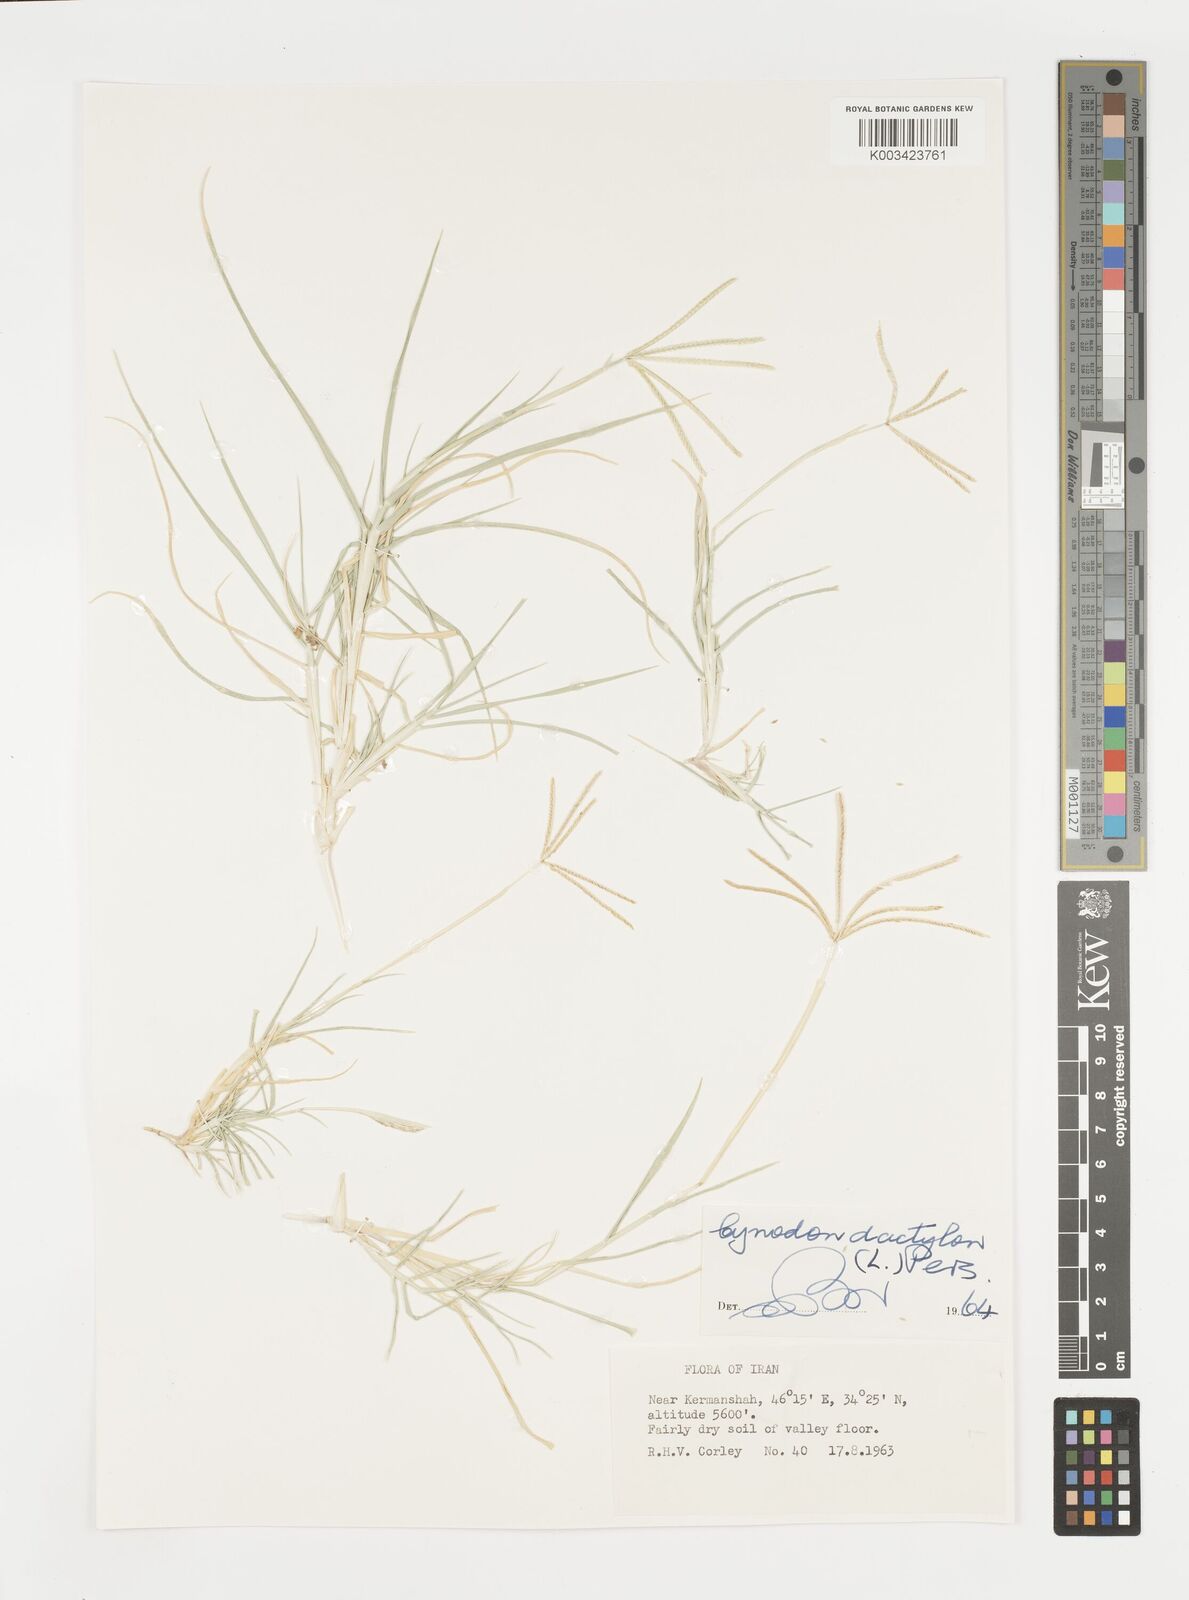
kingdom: Plantae
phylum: Tracheophyta
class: Liliopsida
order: Poales
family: Poaceae
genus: Cynodon
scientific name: Cynodon dactylon
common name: Bermuda grass
